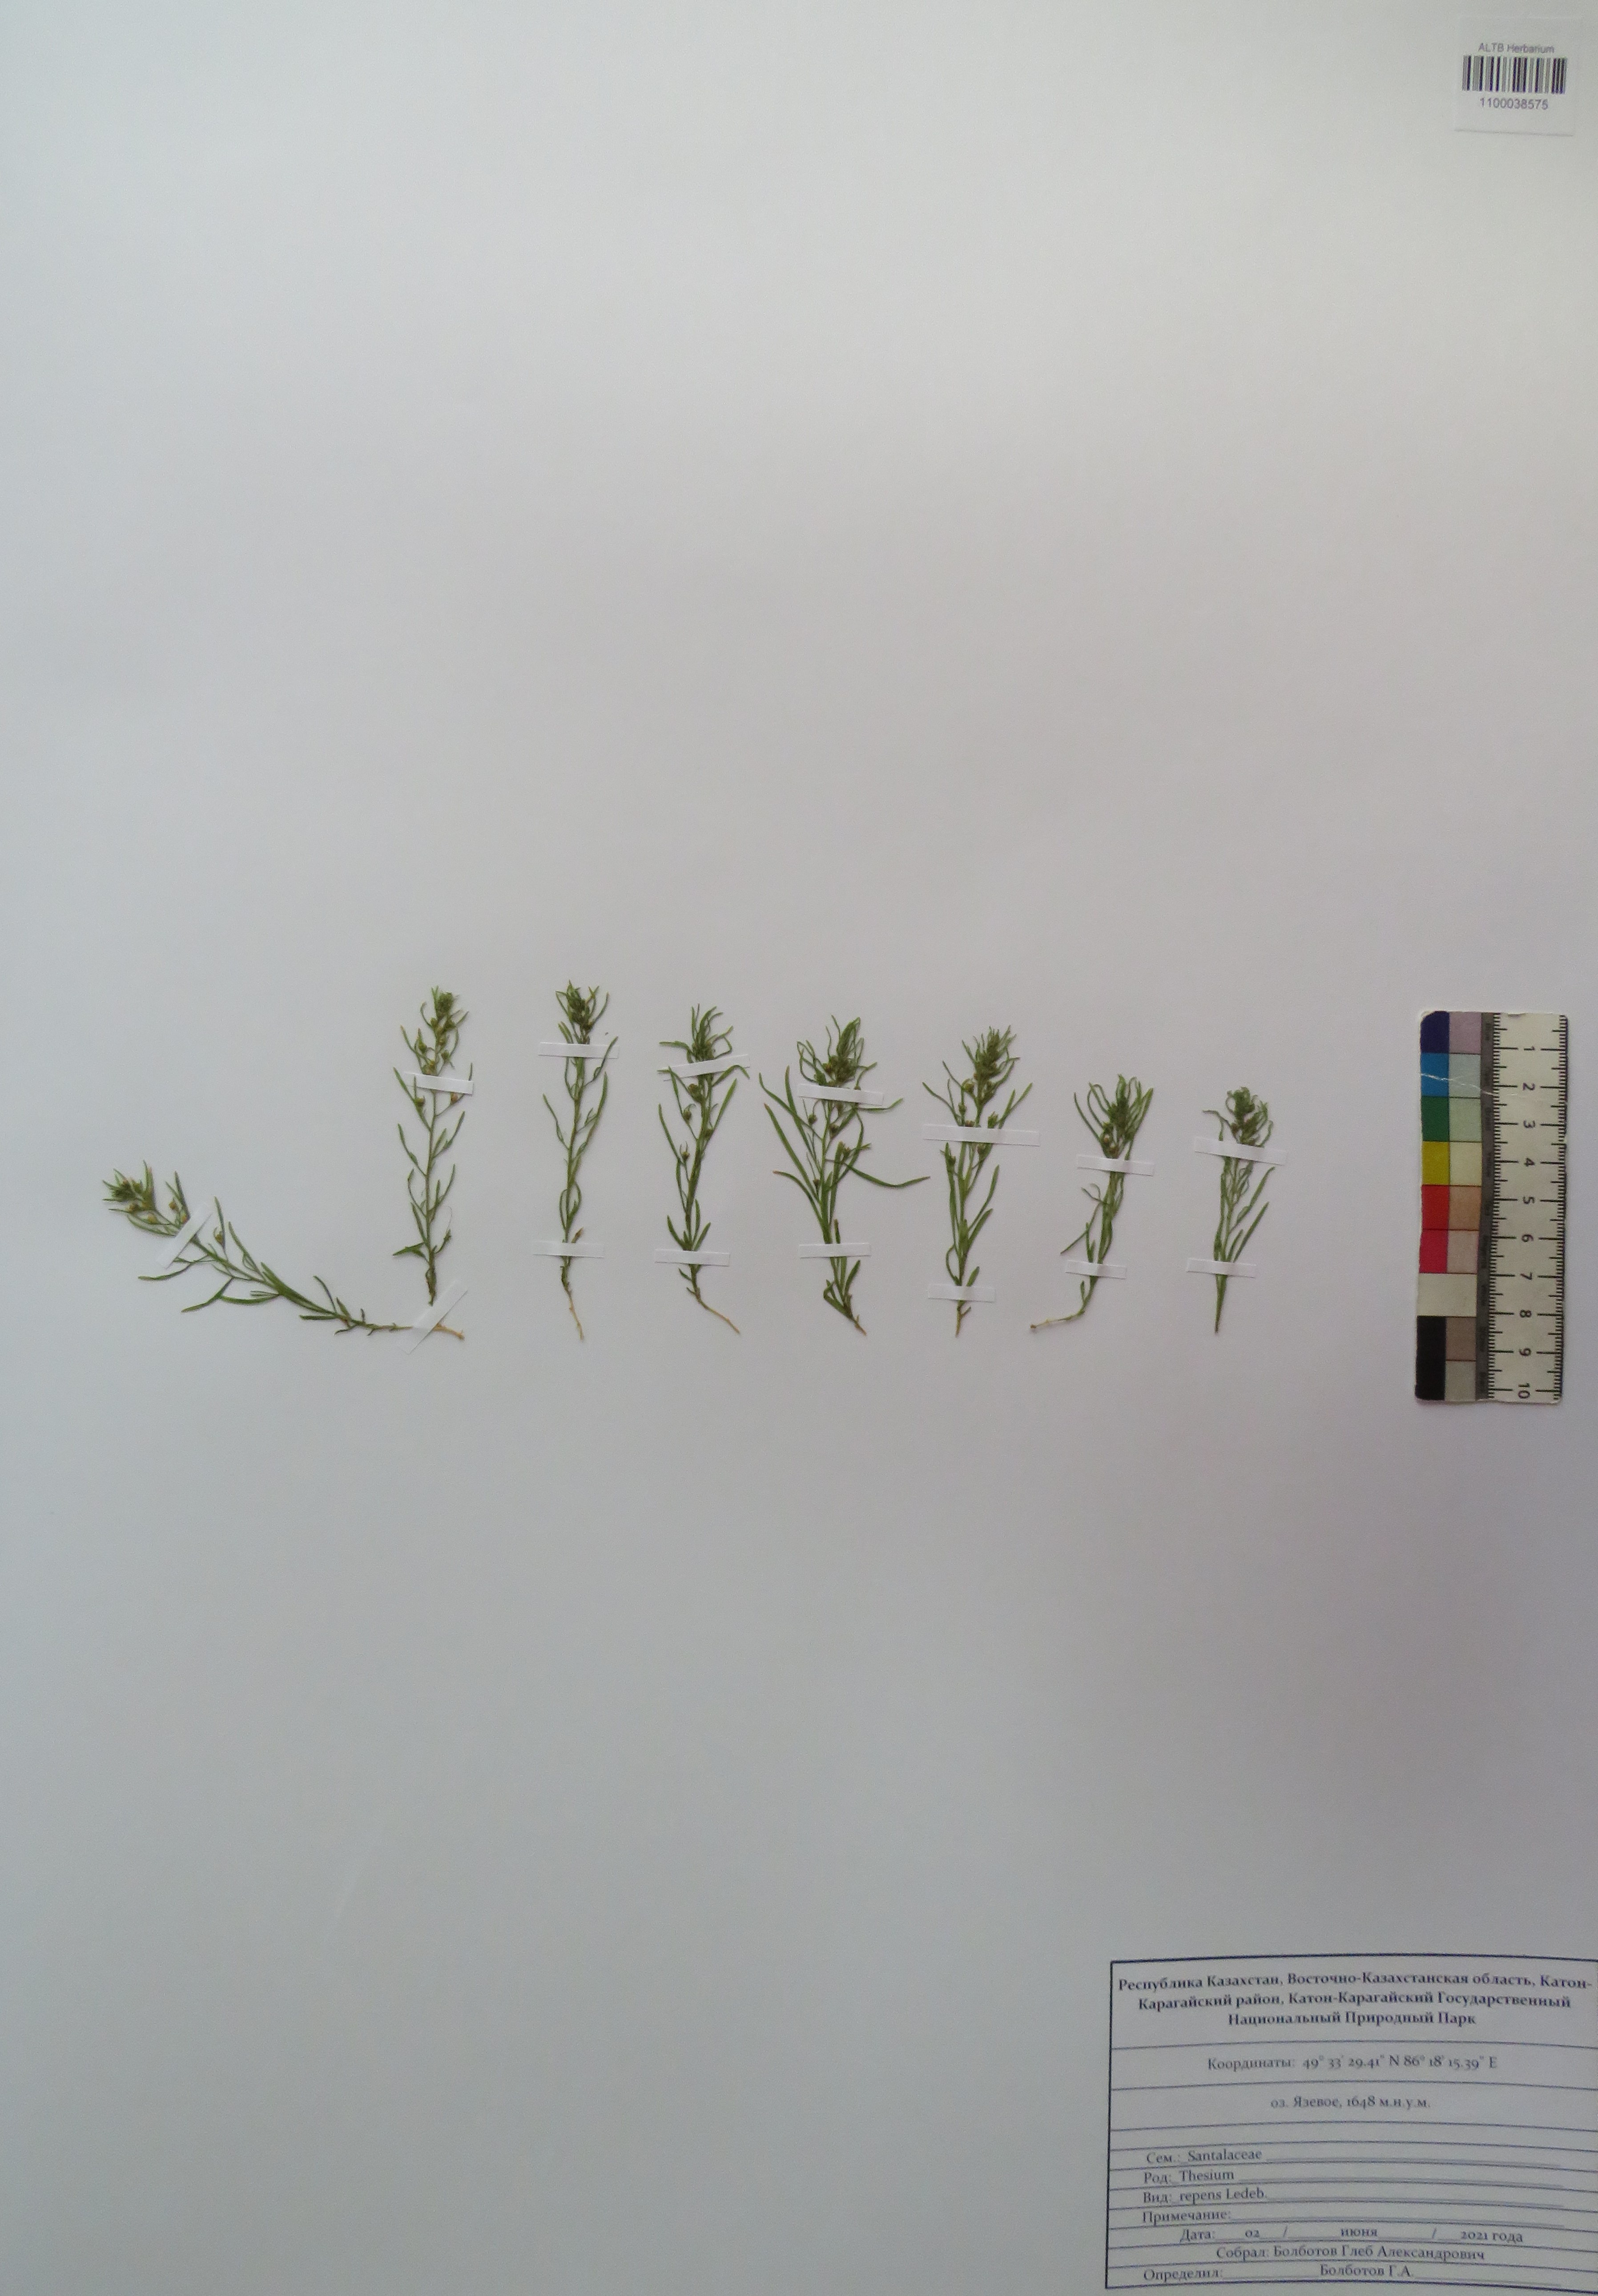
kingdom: Plantae
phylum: Tracheophyta
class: Magnoliopsida
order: Santalales
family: Thesiaceae
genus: Thesium
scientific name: Thesium repens
